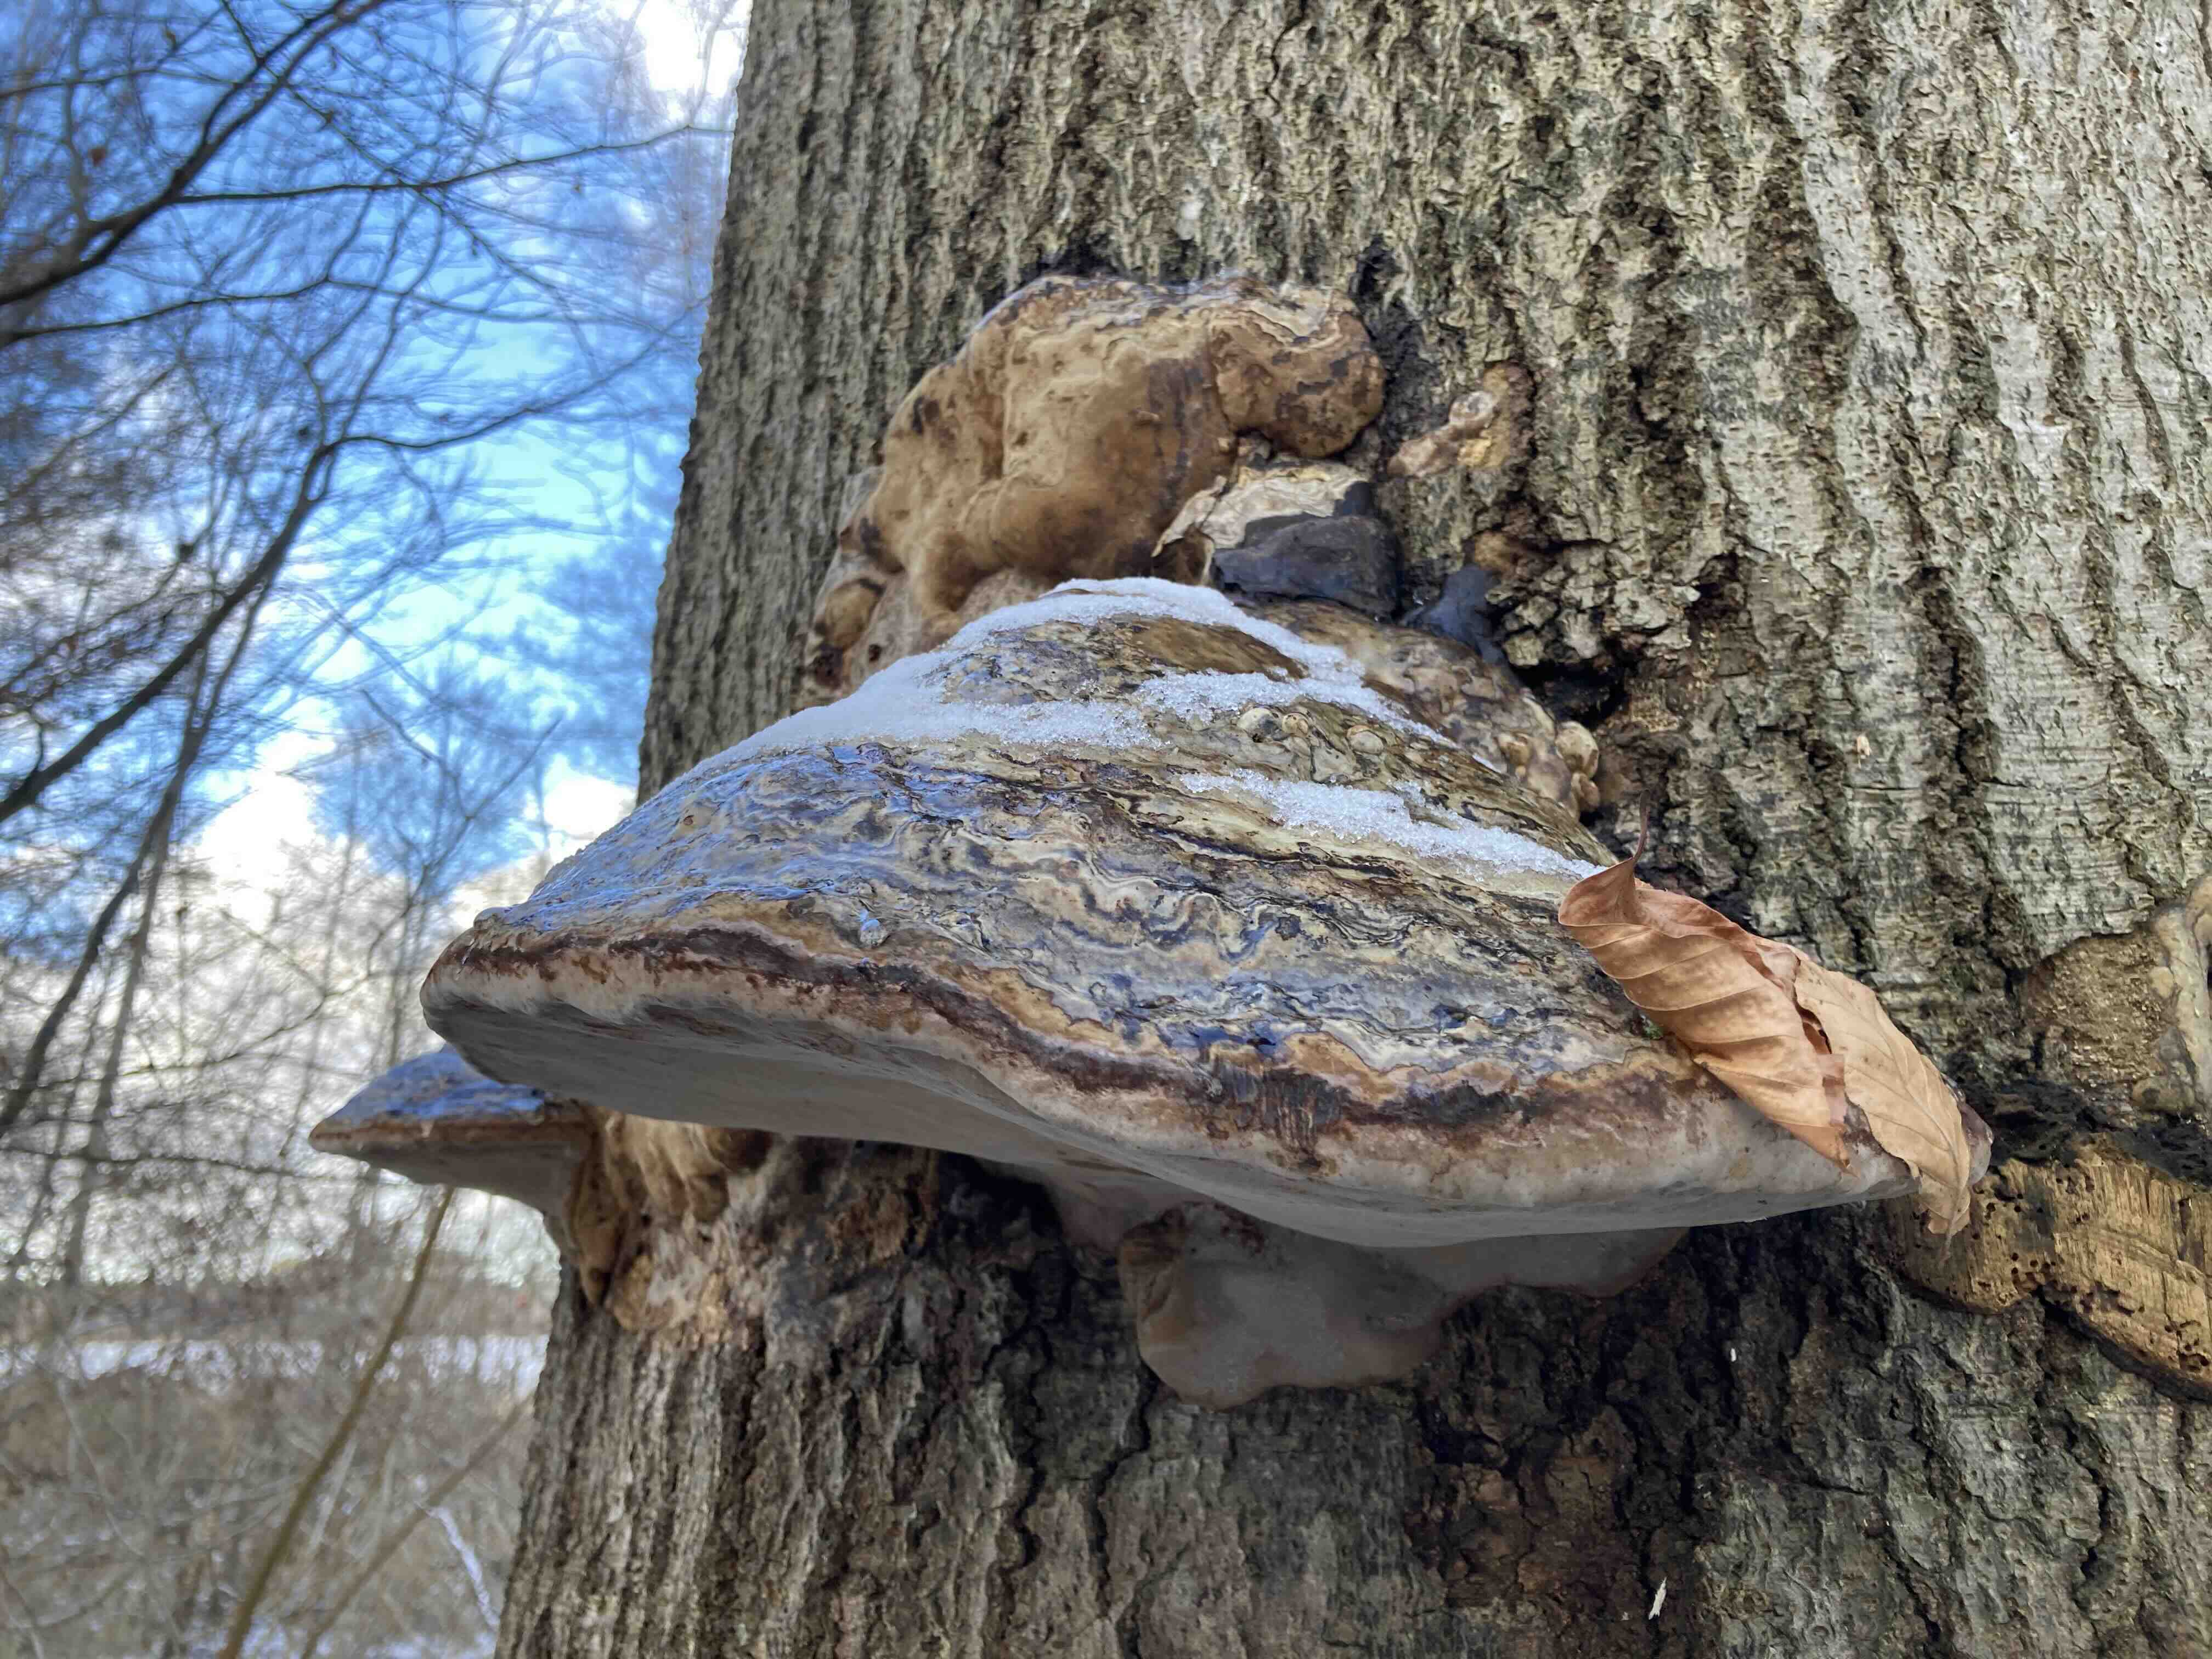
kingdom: Fungi
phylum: Basidiomycota
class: Agaricomycetes
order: Polyporales
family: Polyporaceae
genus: Fomes
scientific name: Fomes fomentarius
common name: tøndersvamp
